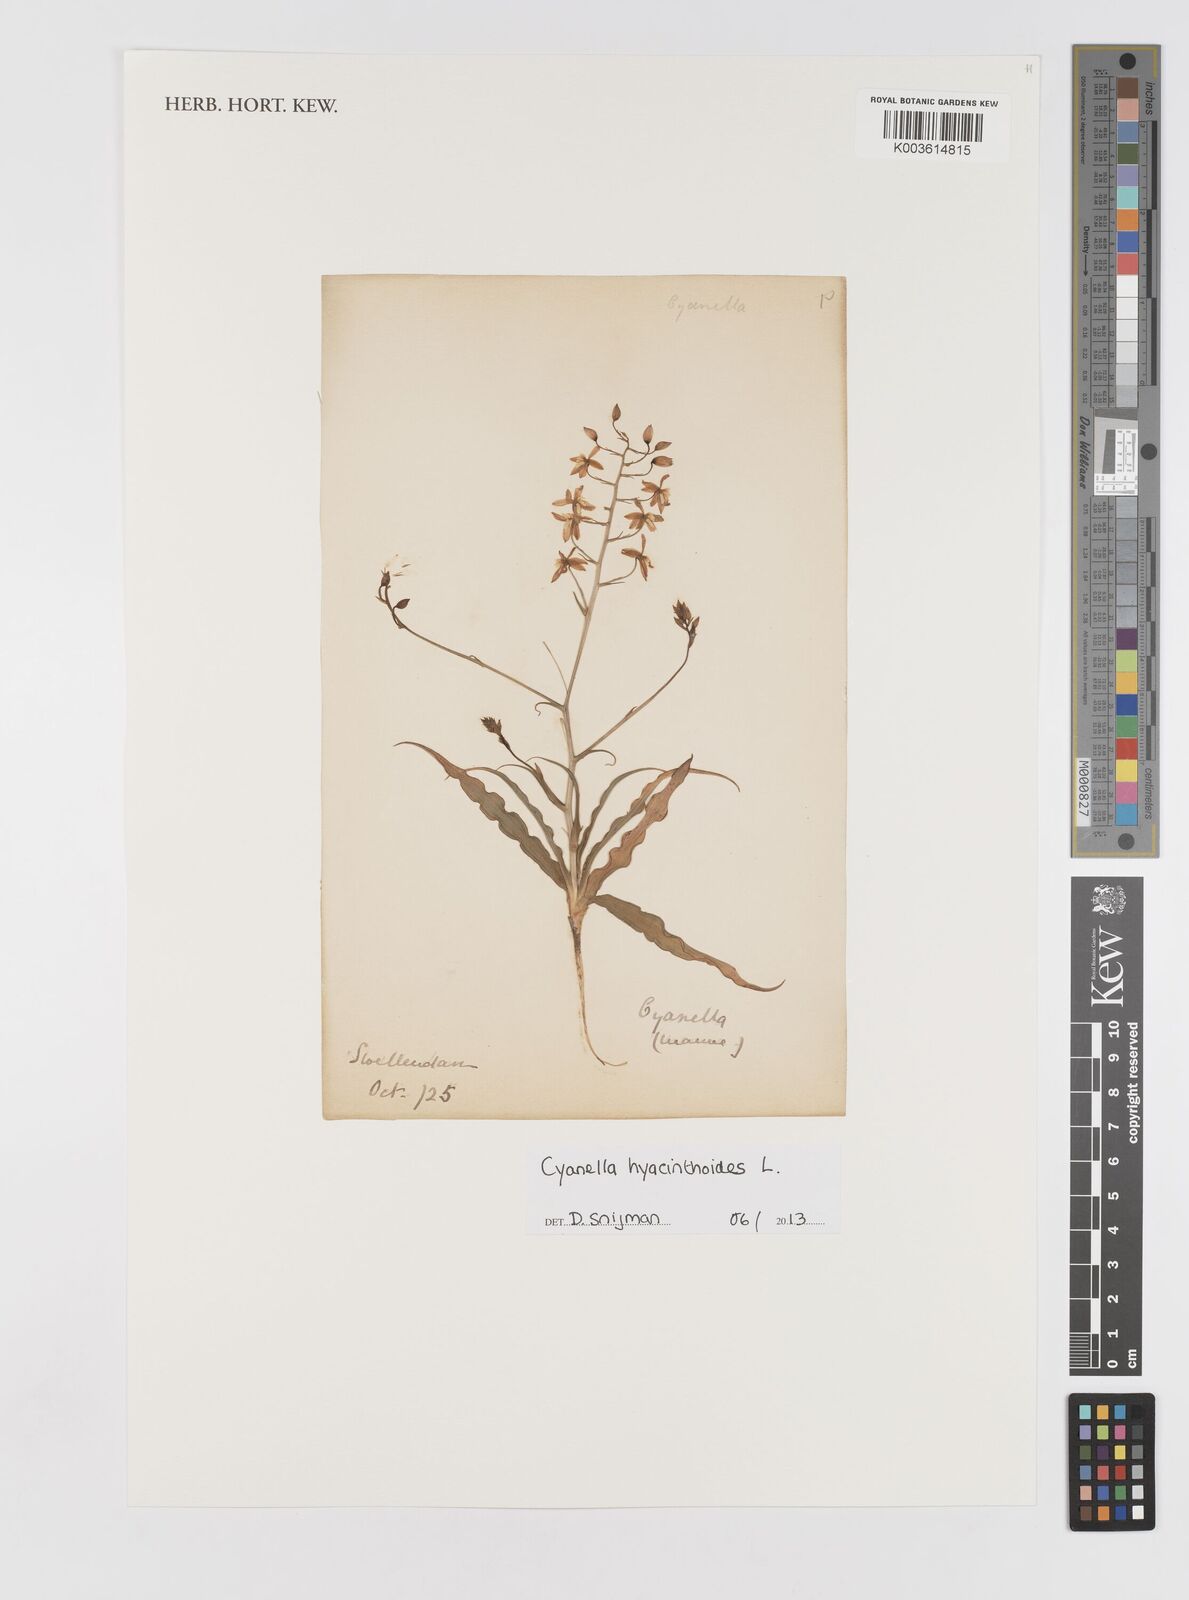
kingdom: Plantae
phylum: Tracheophyta
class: Liliopsida
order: Asparagales
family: Tecophilaeaceae
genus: Cyanella
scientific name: Cyanella hyacinthoides
